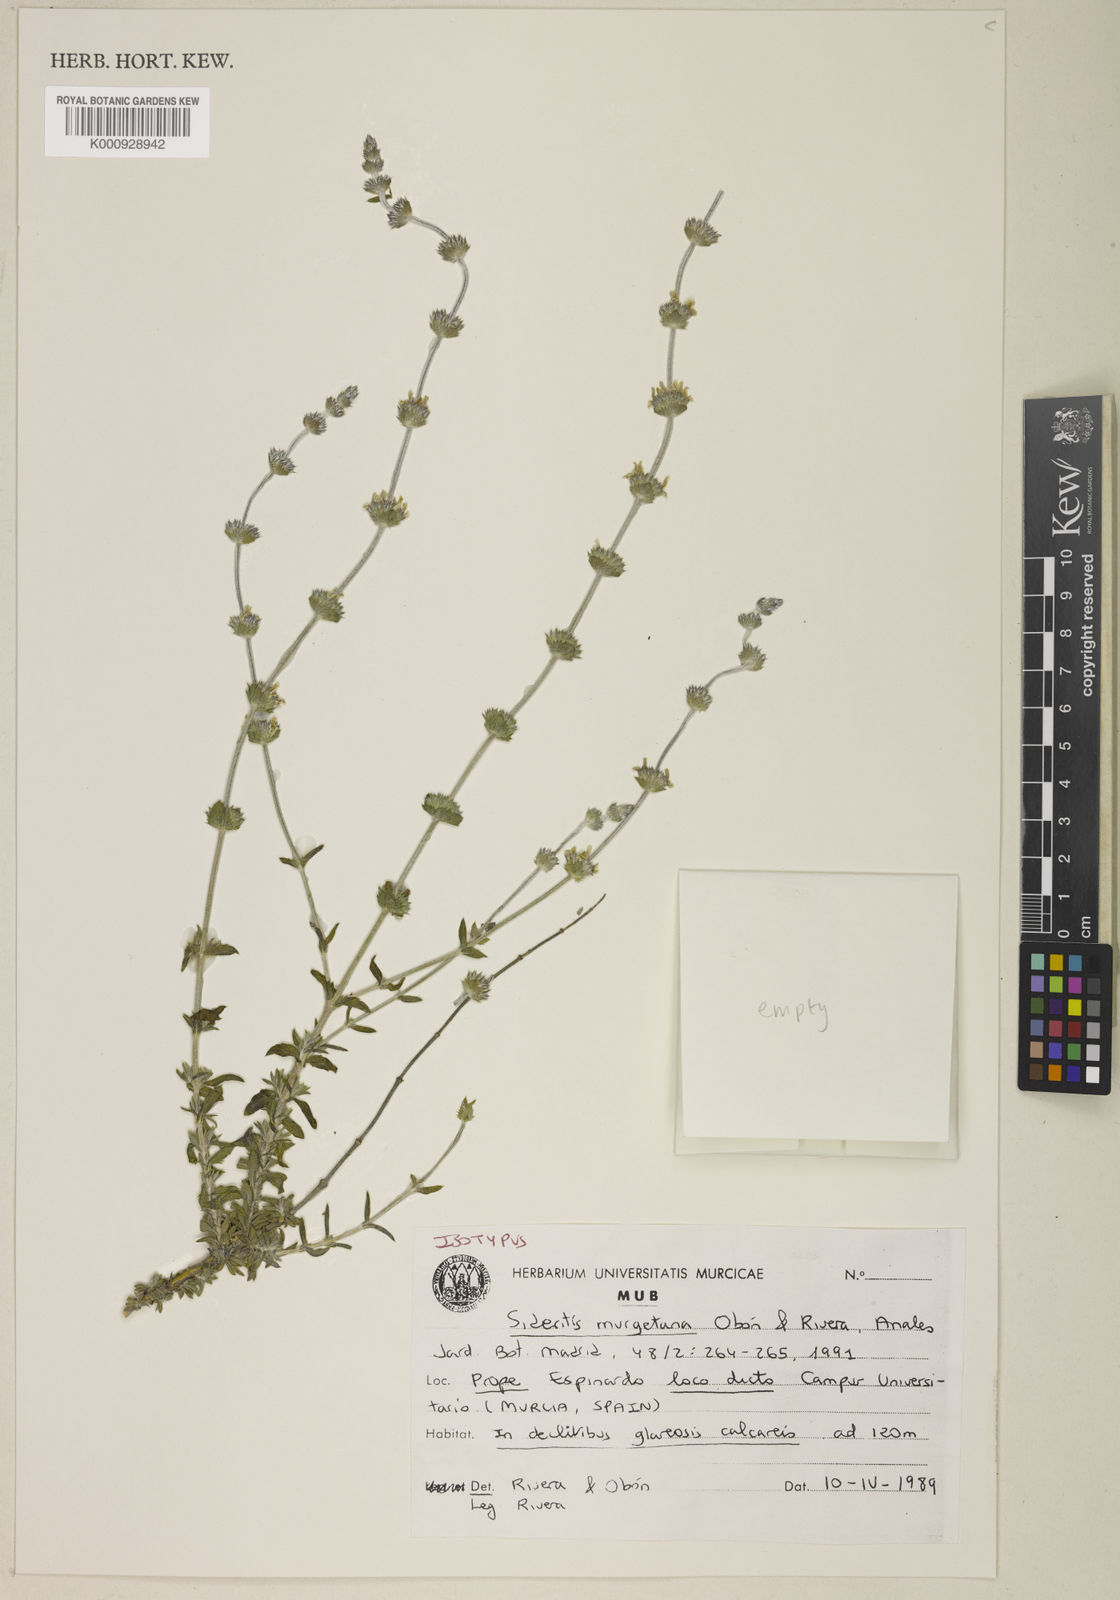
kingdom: Plantae
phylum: Tracheophyta
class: Magnoliopsida
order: Lamiales
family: Lamiaceae
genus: Sideritis
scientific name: Sideritis
